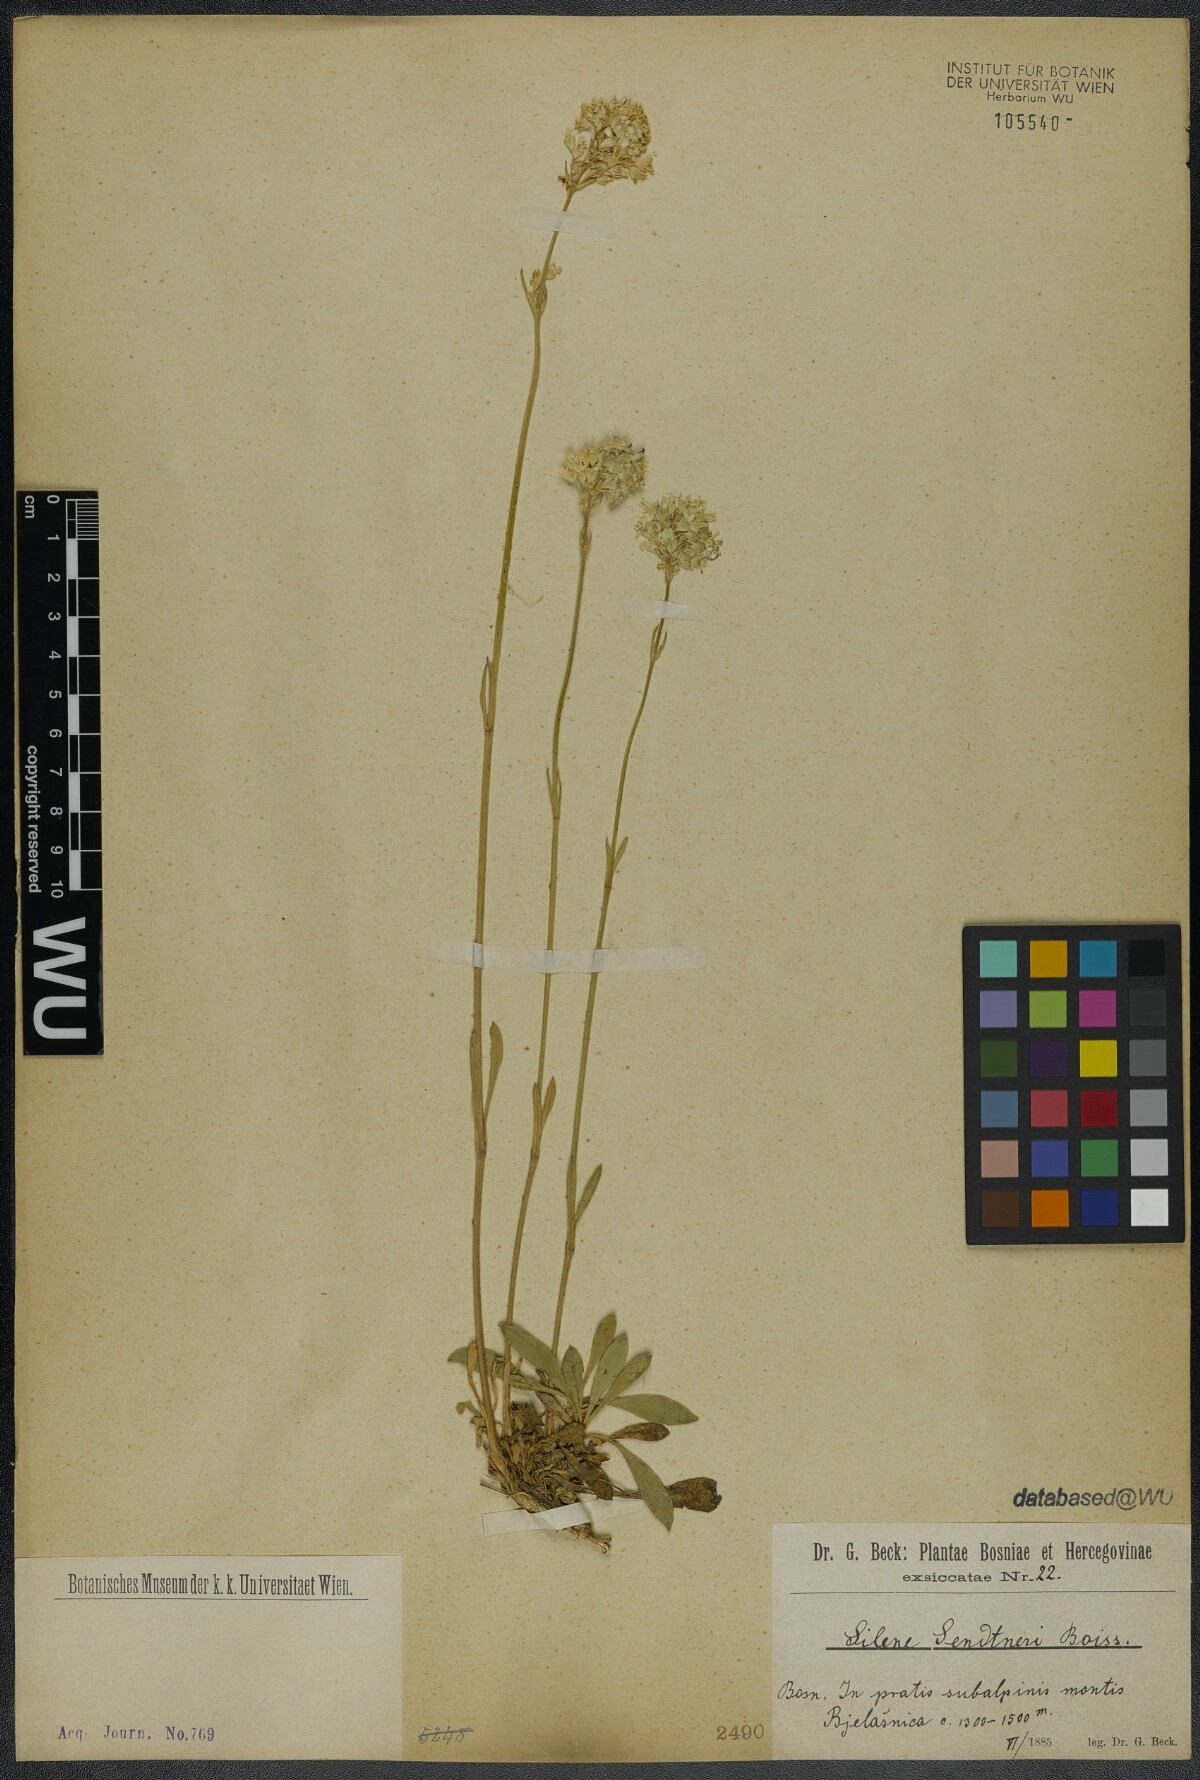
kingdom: Plantae
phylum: Tracheophyta
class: Magnoliopsida
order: Caryophyllales
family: Caryophyllaceae
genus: Silene
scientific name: Silene sendtneri
